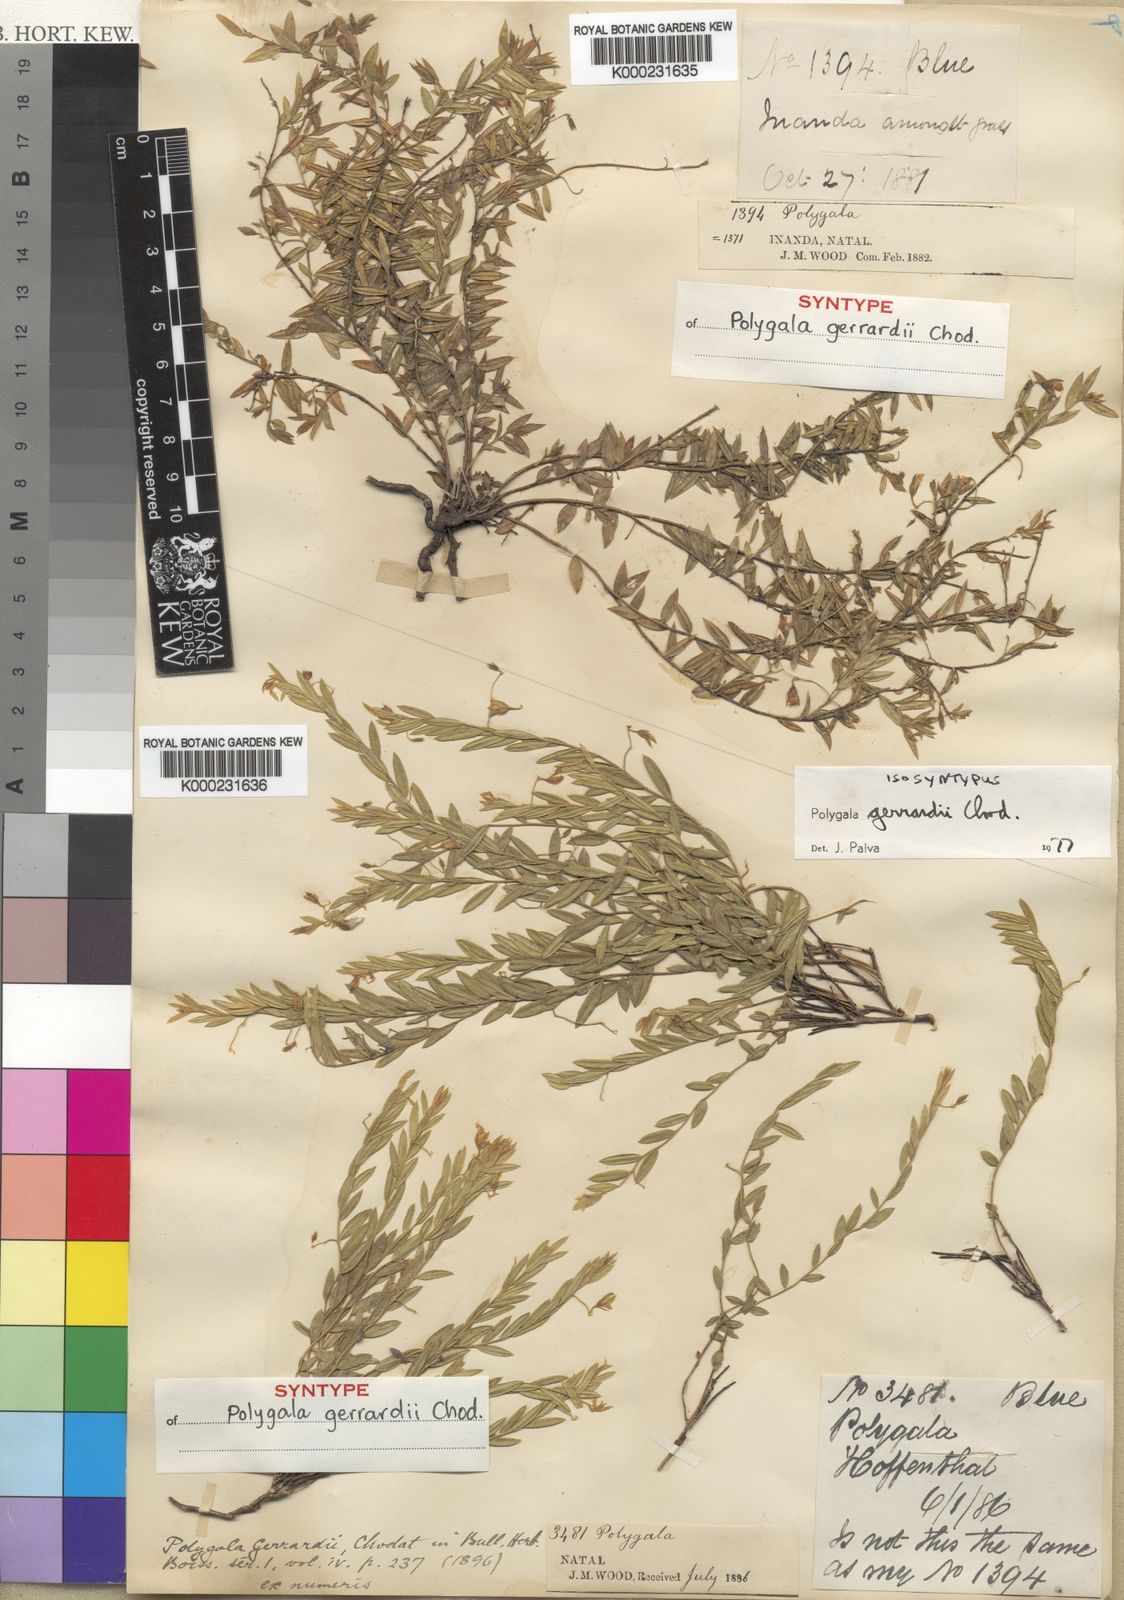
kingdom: Plantae
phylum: Tracheophyta
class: Magnoliopsida
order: Fabales
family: Polygalaceae
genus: Polygala
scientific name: Polygala gerrardii
